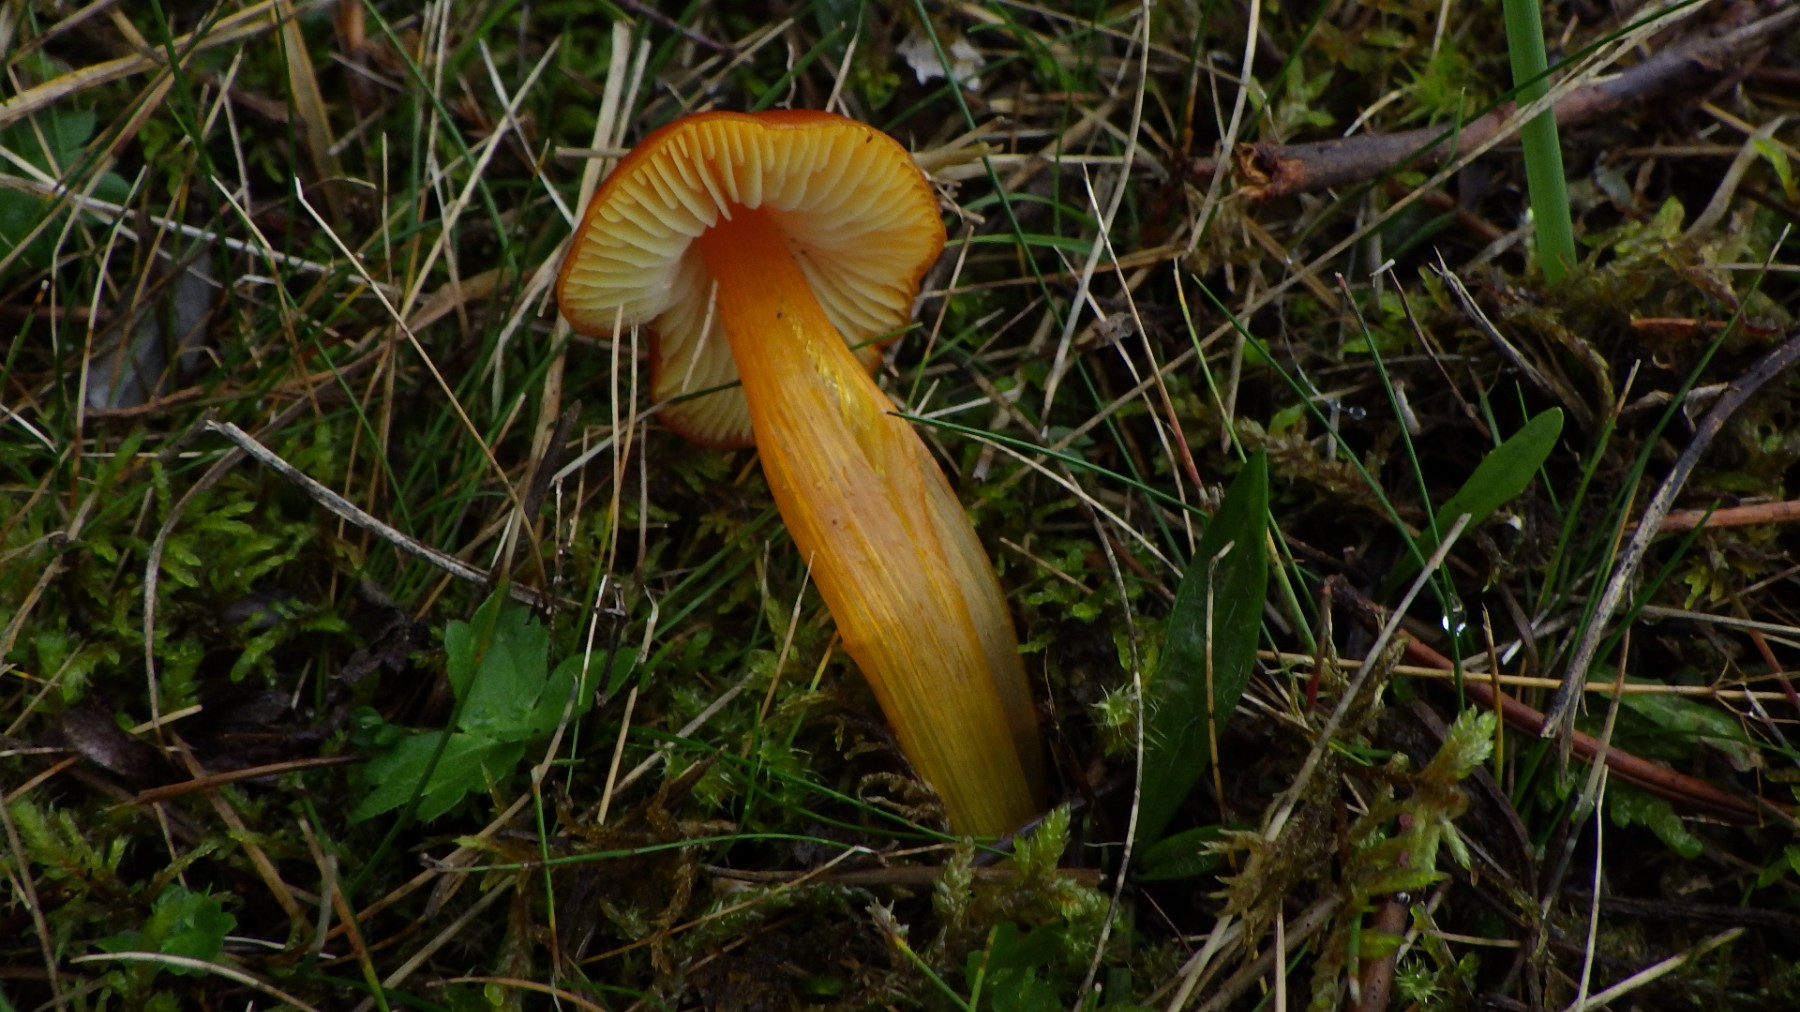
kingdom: Fungi
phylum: Basidiomycota
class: Agaricomycetes
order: Agaricales
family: Hygrophoraceae
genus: Hygrocybe
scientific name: Hygrocybe conica
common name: kegle-vokshat
